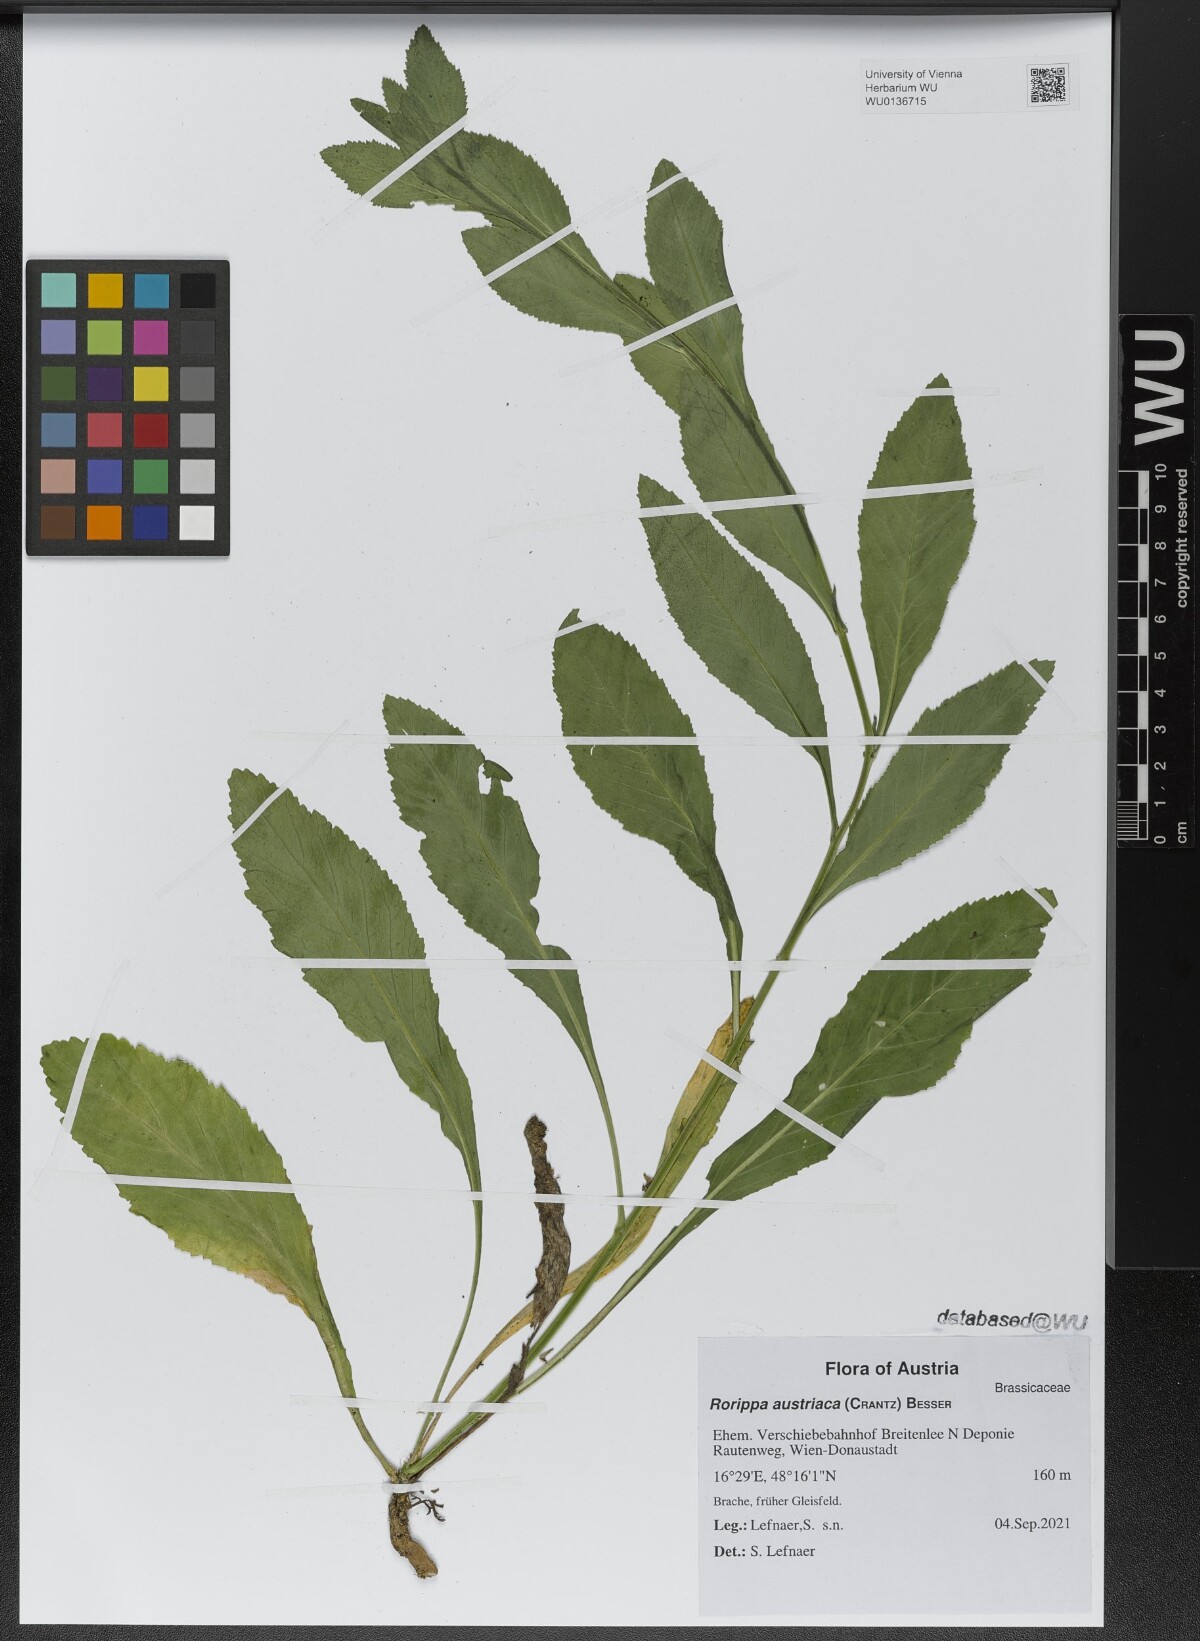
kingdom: Plantae
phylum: Tracheophyta
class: Magnoliopsida
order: Brassicales
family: Brassicaceae
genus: Rorippa
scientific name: Rorippa austriaca
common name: Austrian yellow-cress
